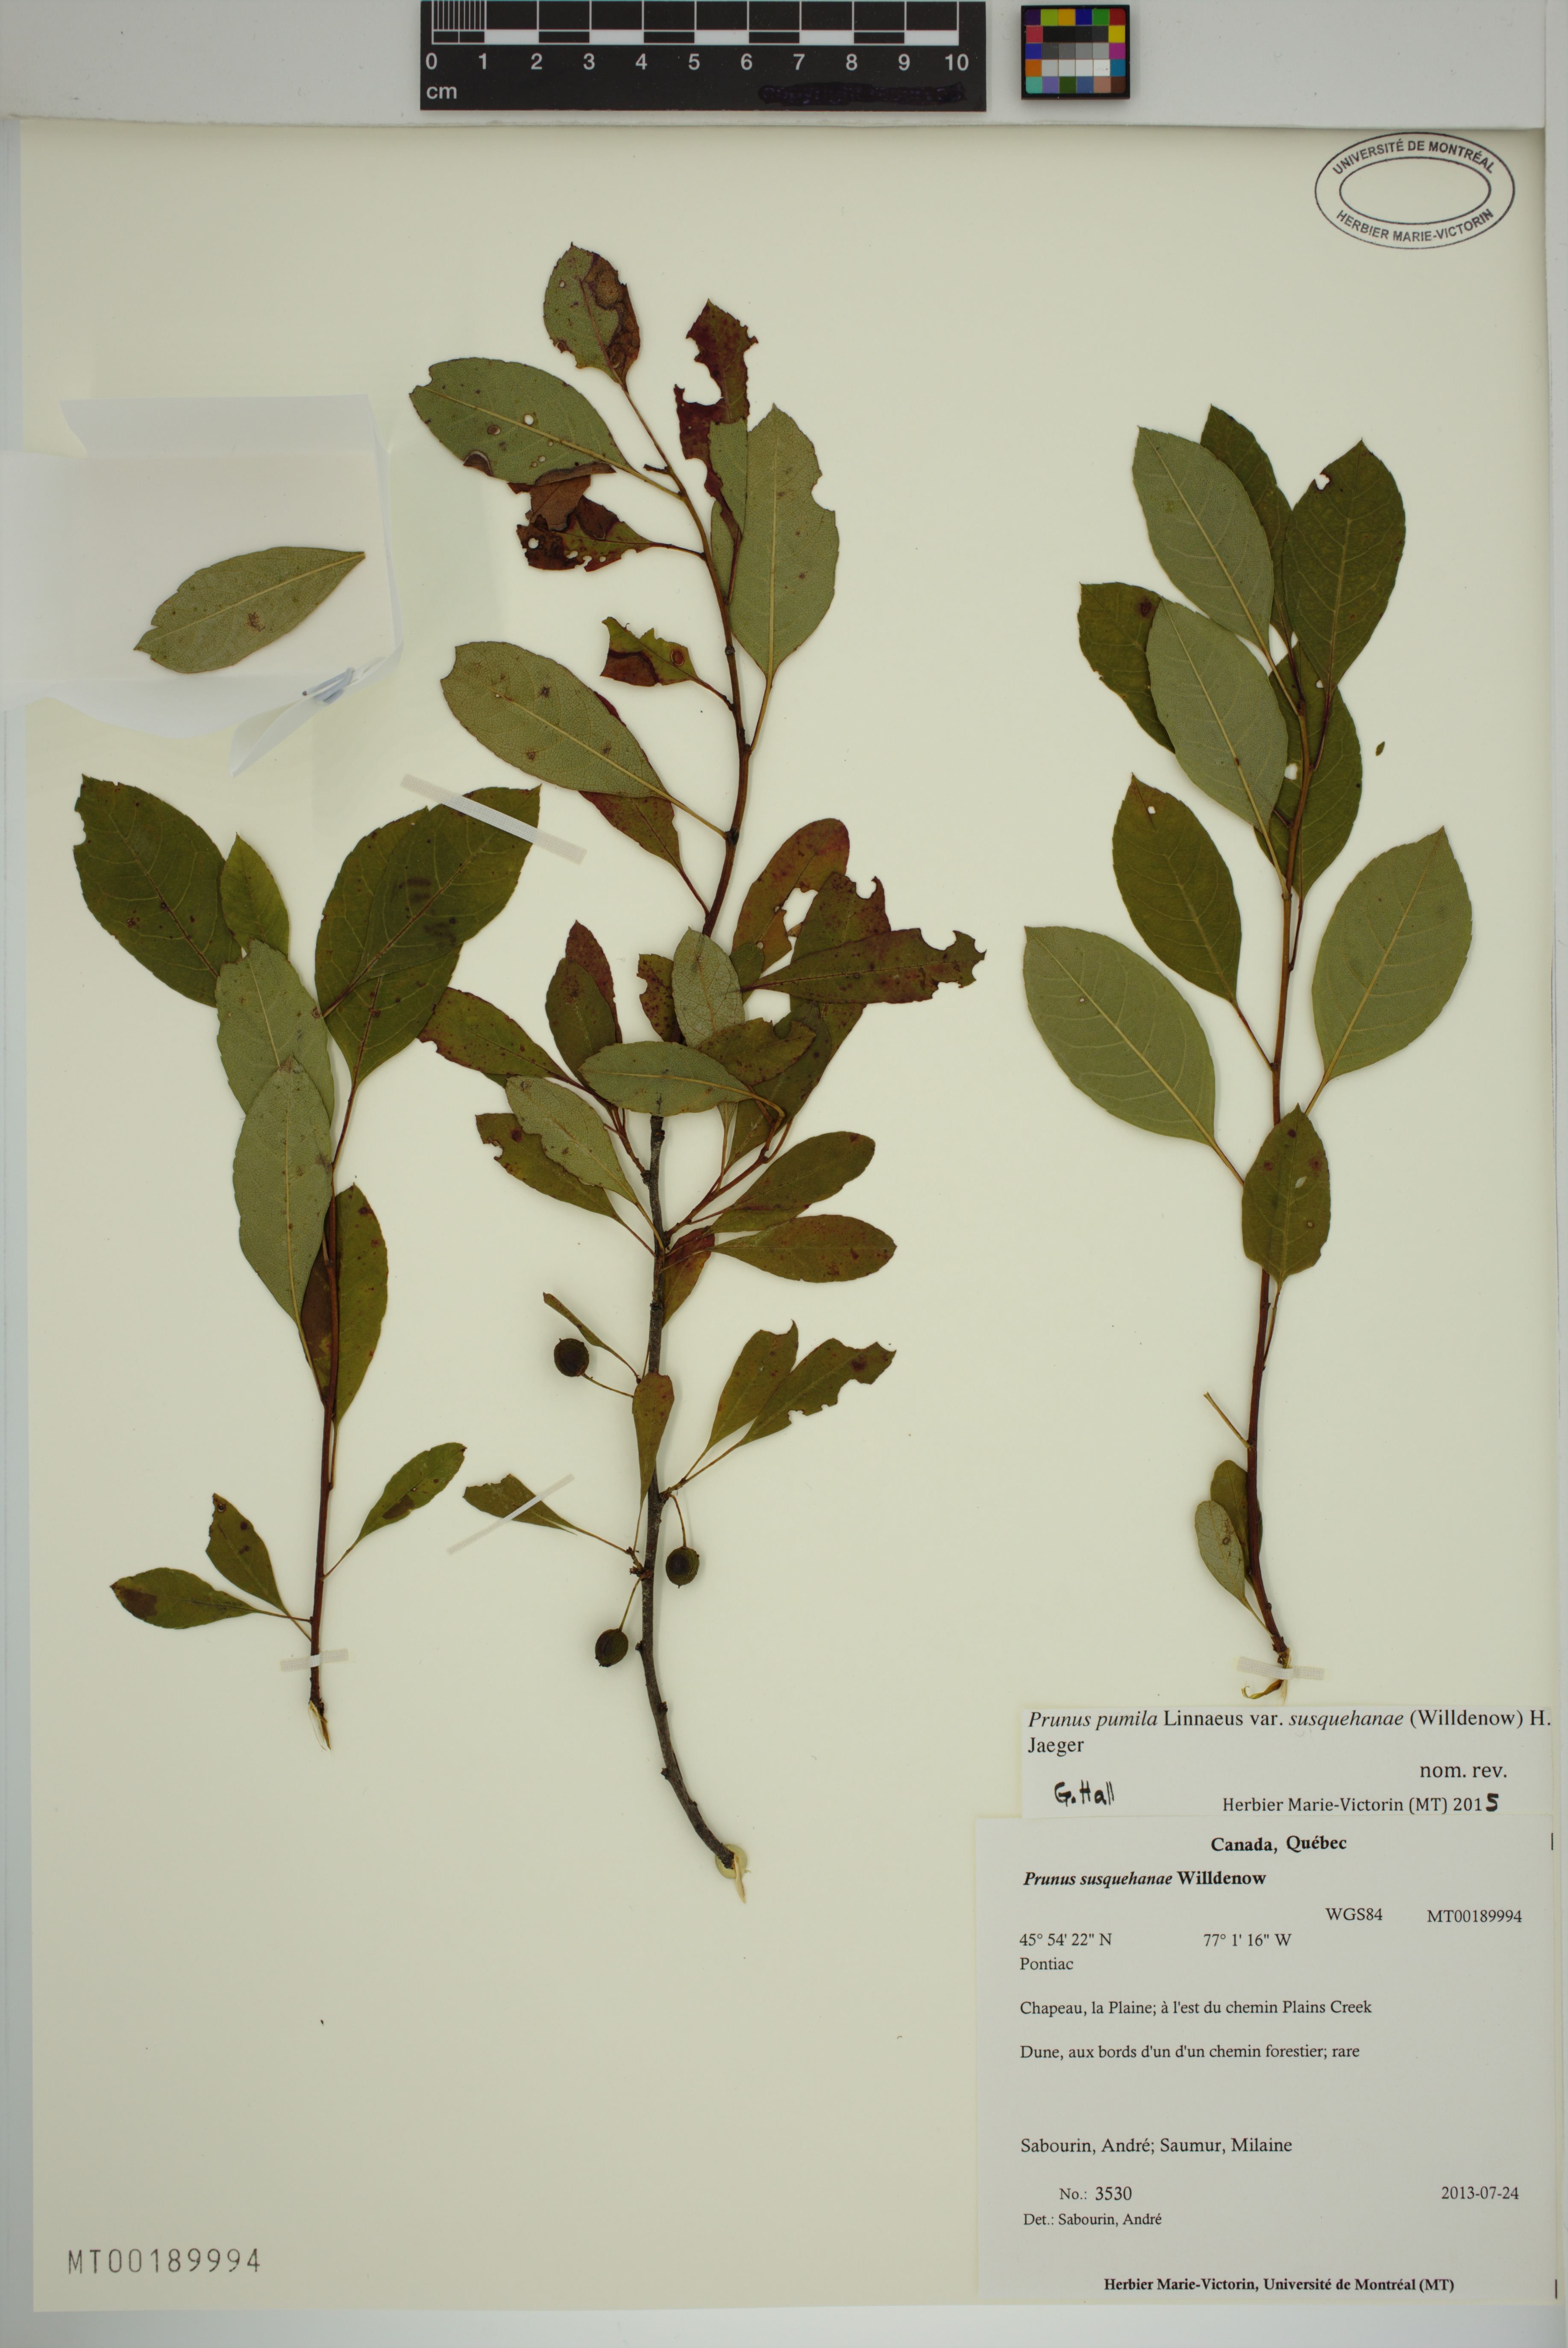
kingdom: Plantae
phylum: Tracheophyta
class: Magnoliopsida
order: Rosales
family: Rosaceae
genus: Prunus
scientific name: Prunus susquehanae
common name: Sesquehana sandcherry
